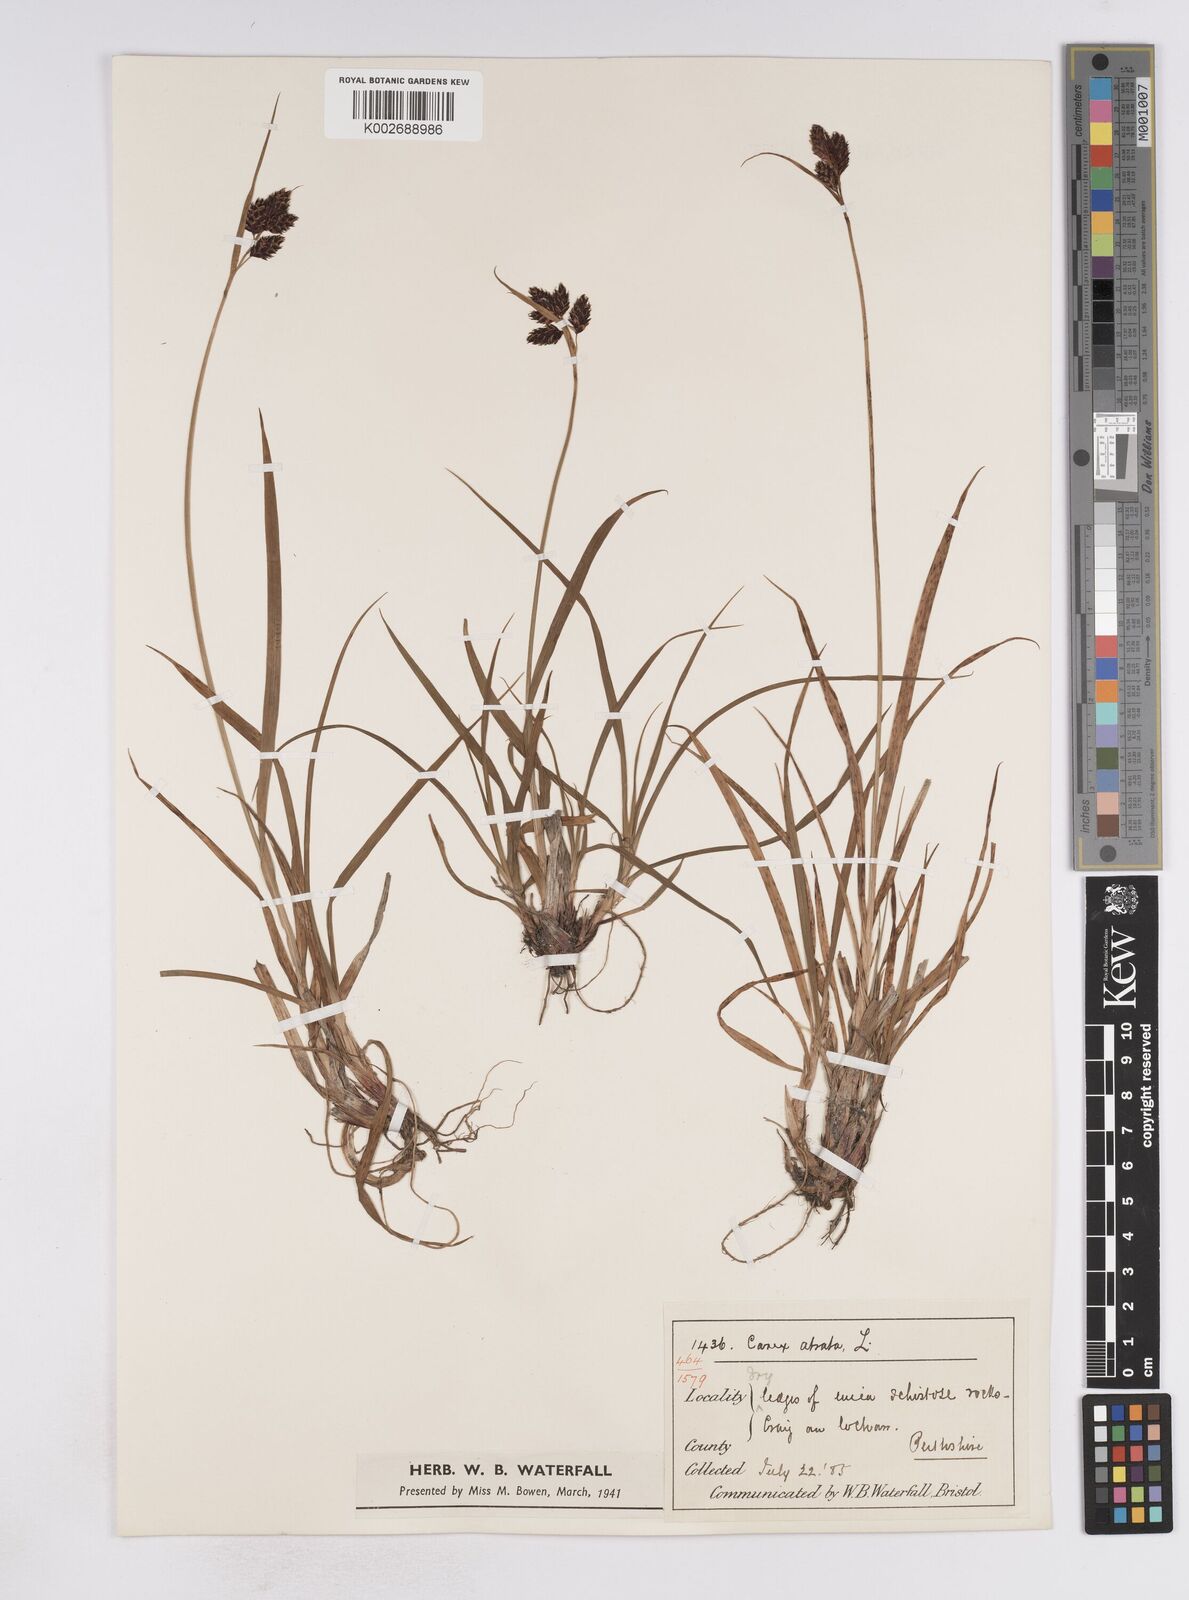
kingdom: Plantae
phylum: Tracheophyta
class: Liliopsida
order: Poales
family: Cyperaceae
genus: Carex
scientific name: Carex atrata
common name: Black alpine sedge
